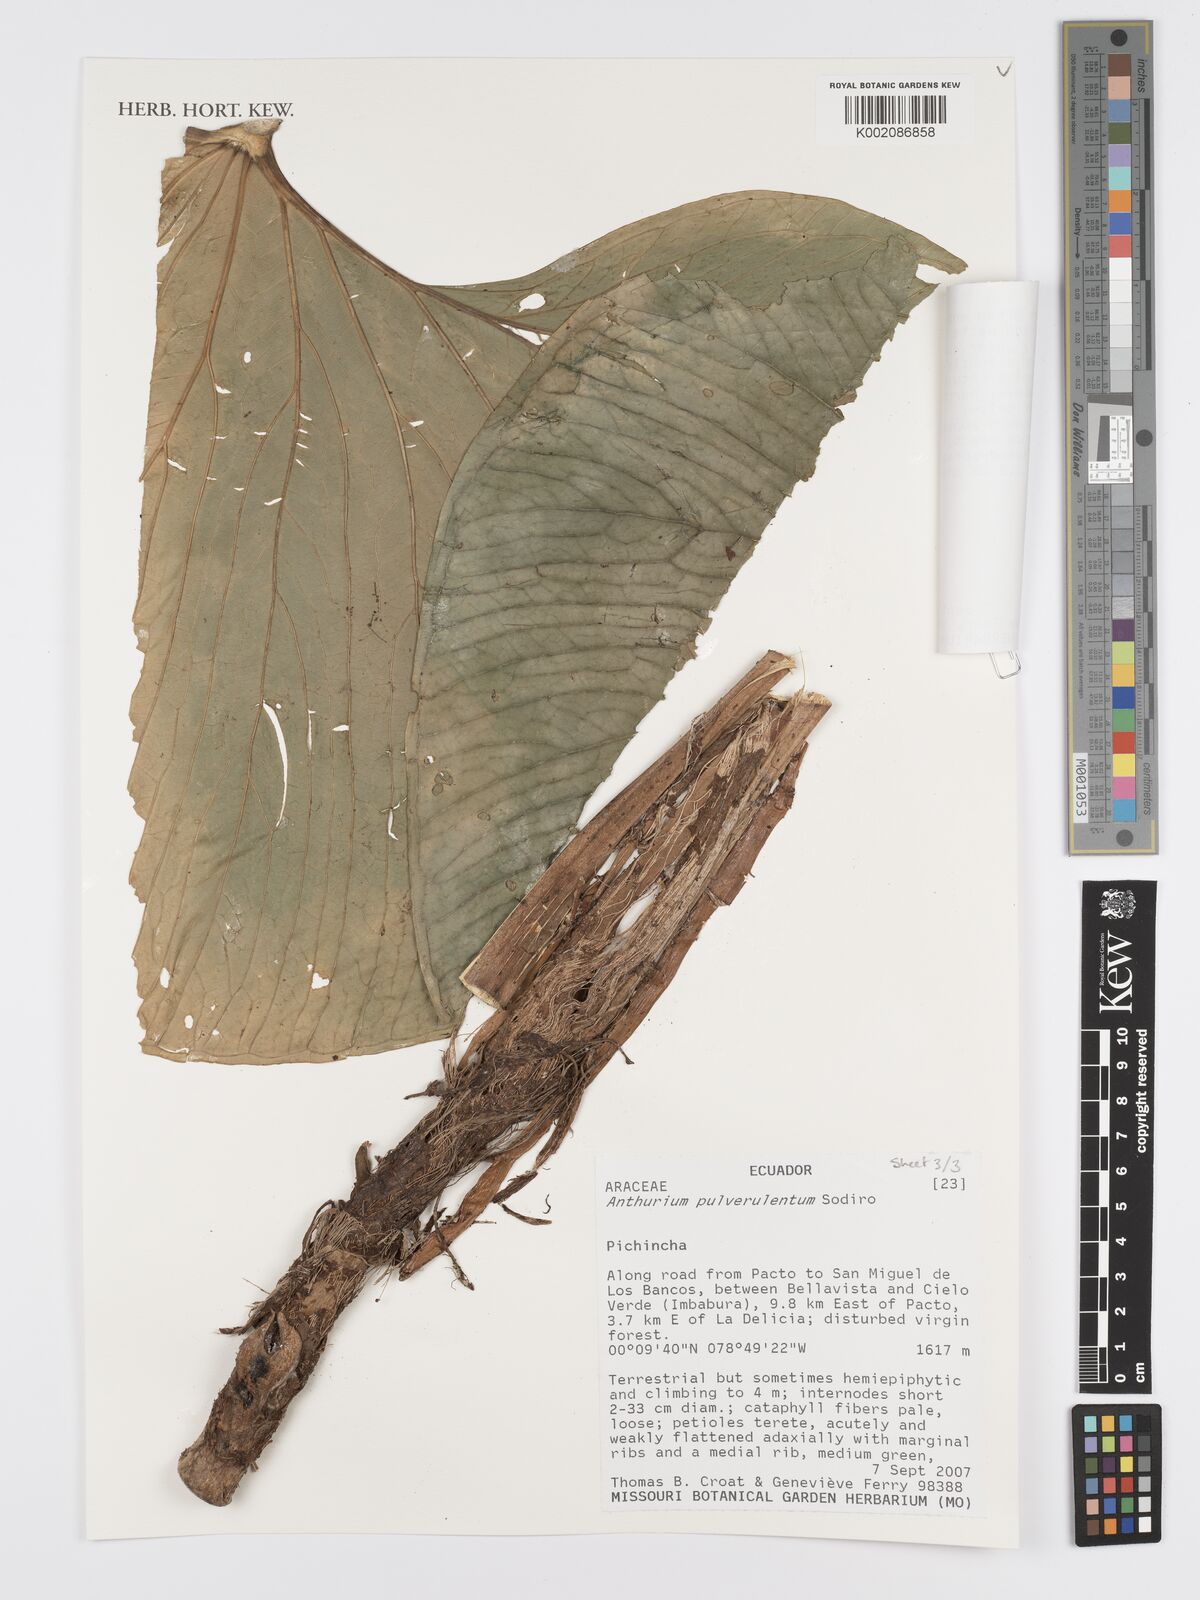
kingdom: Plantae
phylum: Tracheophyta
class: Liliopsida
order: Alismatales
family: Araceae
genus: Anthurium
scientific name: Anthurium pulverulentum
